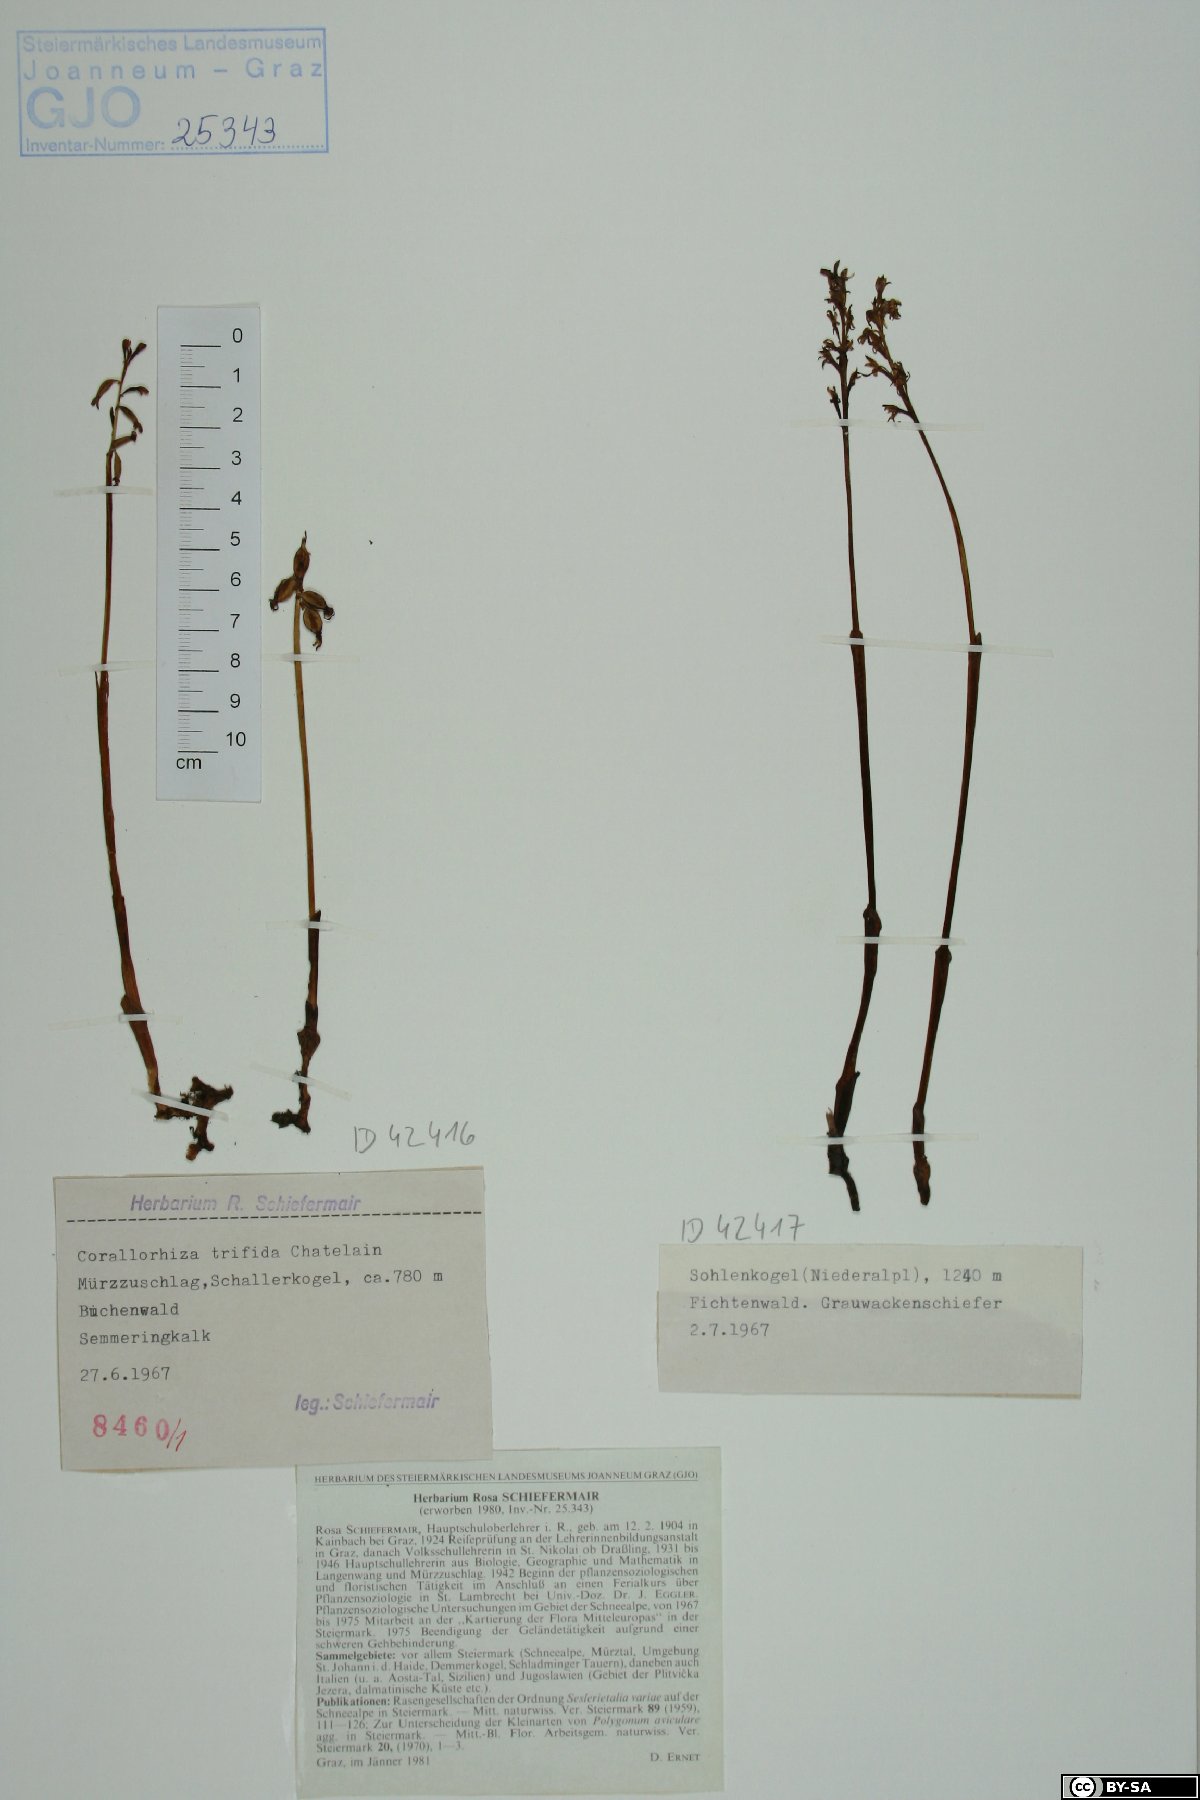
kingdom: Plantae
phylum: Tracheophyta
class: Liliopsida
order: Asparagales
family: Orchidaceae
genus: Corallorhiza
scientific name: Corallorhiza trifida
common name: Yellow coralroot
